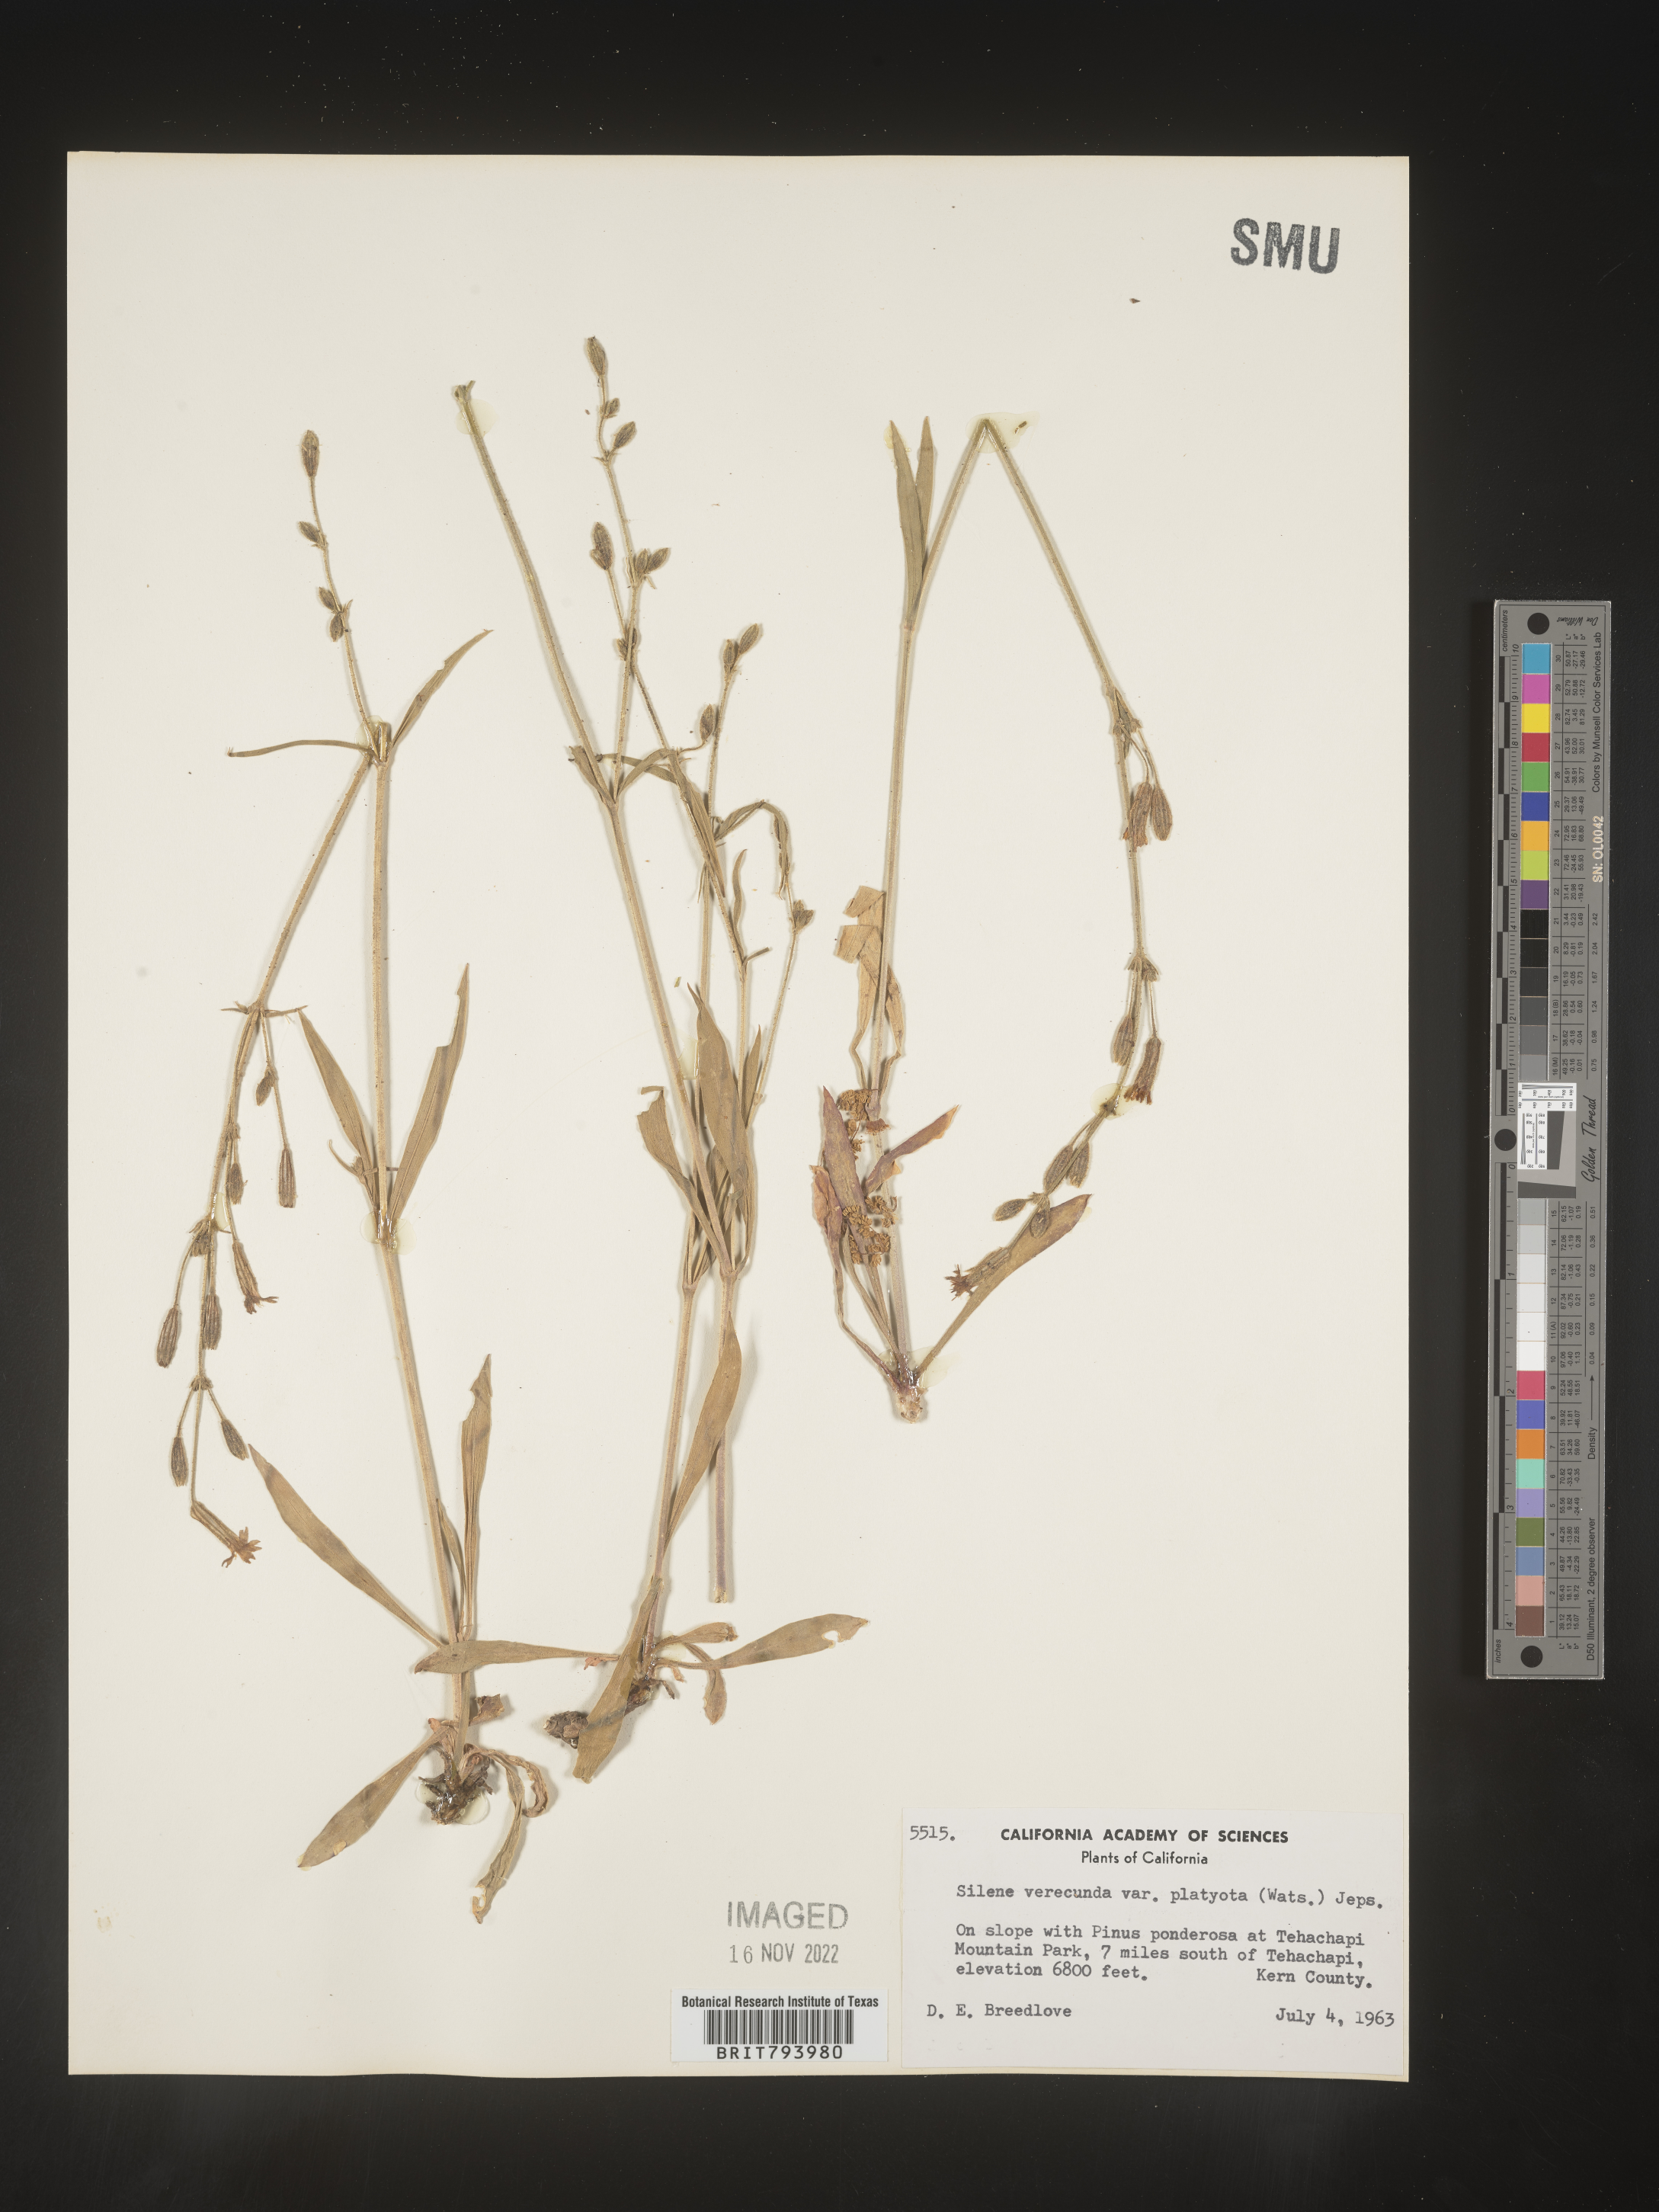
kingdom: Plantae
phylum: Tracheophyta
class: Magnoliopsida
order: Caryophyllales
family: Caryophyllaceae
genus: Silene
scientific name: Silene verecunda
